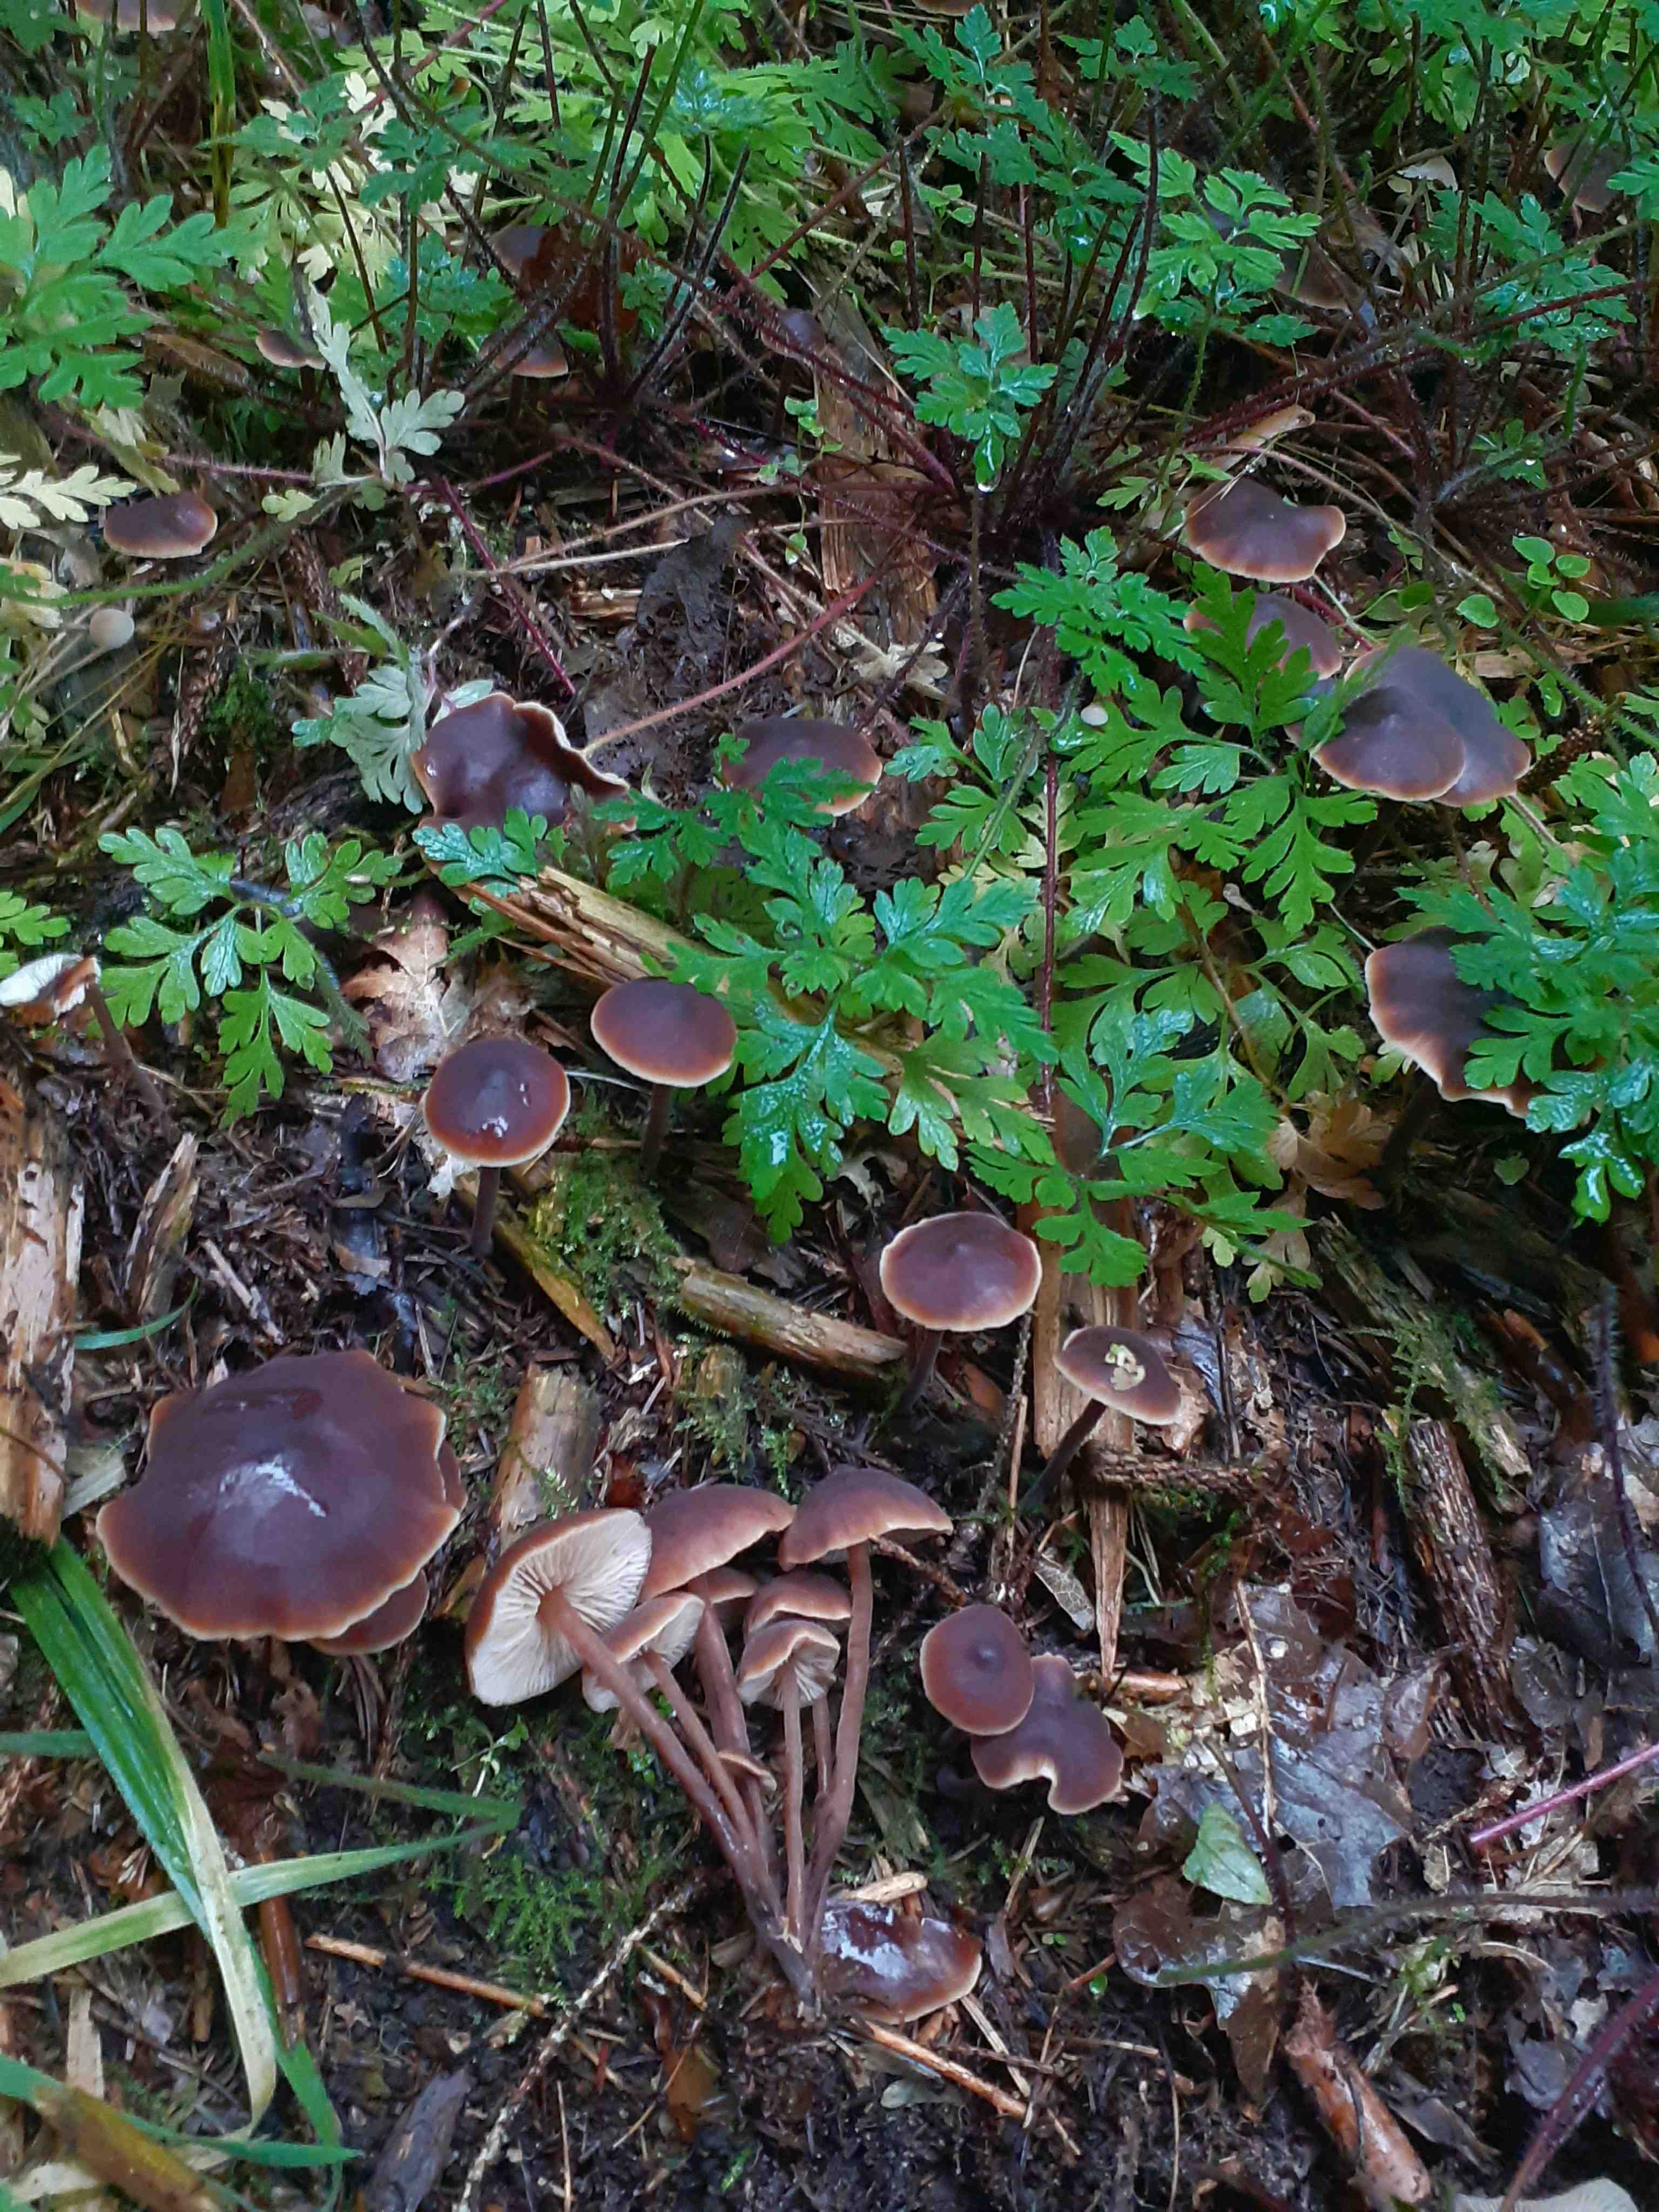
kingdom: Fungi
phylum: Basidiomycota
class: Agaricomycetes
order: Agaricales
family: Macrocystidiaceae
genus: Macrocystidia
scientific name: Macrocystidia cucumis
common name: agurkehat
